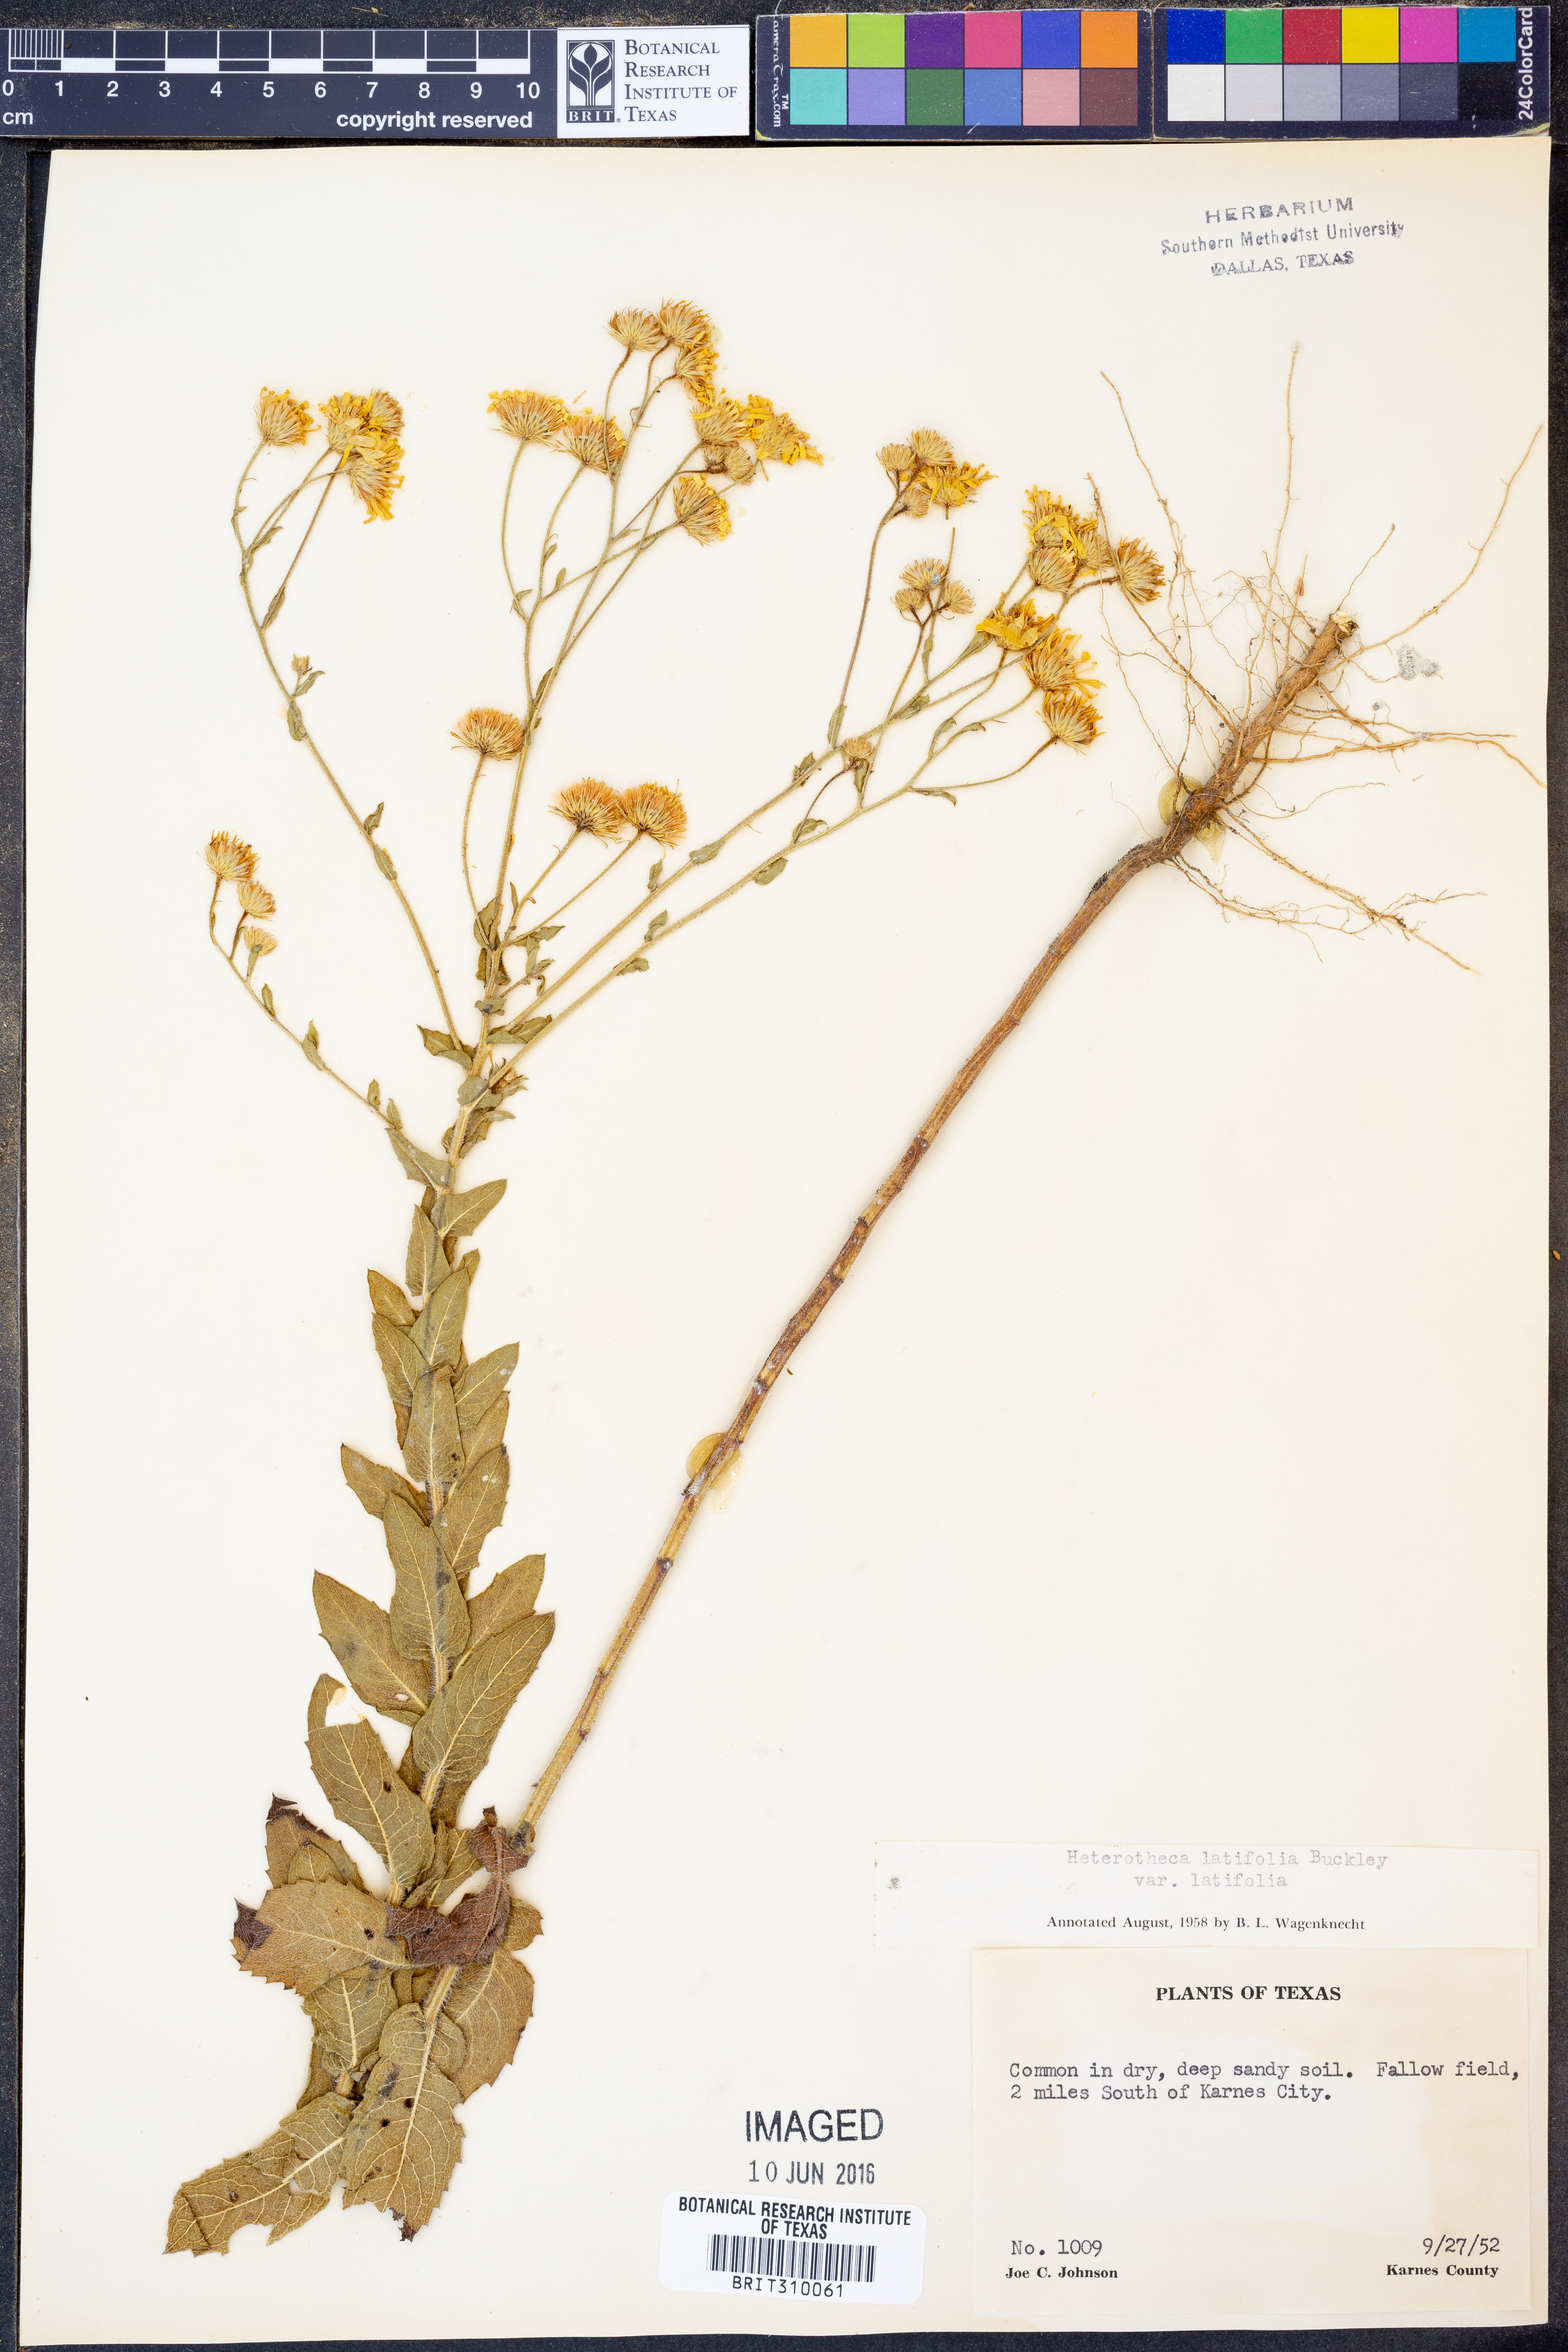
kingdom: Plantae
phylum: Tracheophyta
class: Magnoliopsida
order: Asterales
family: Asteraceae
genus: Heterotheca
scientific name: Heterotheca subaxillaris
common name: Camphorweed
